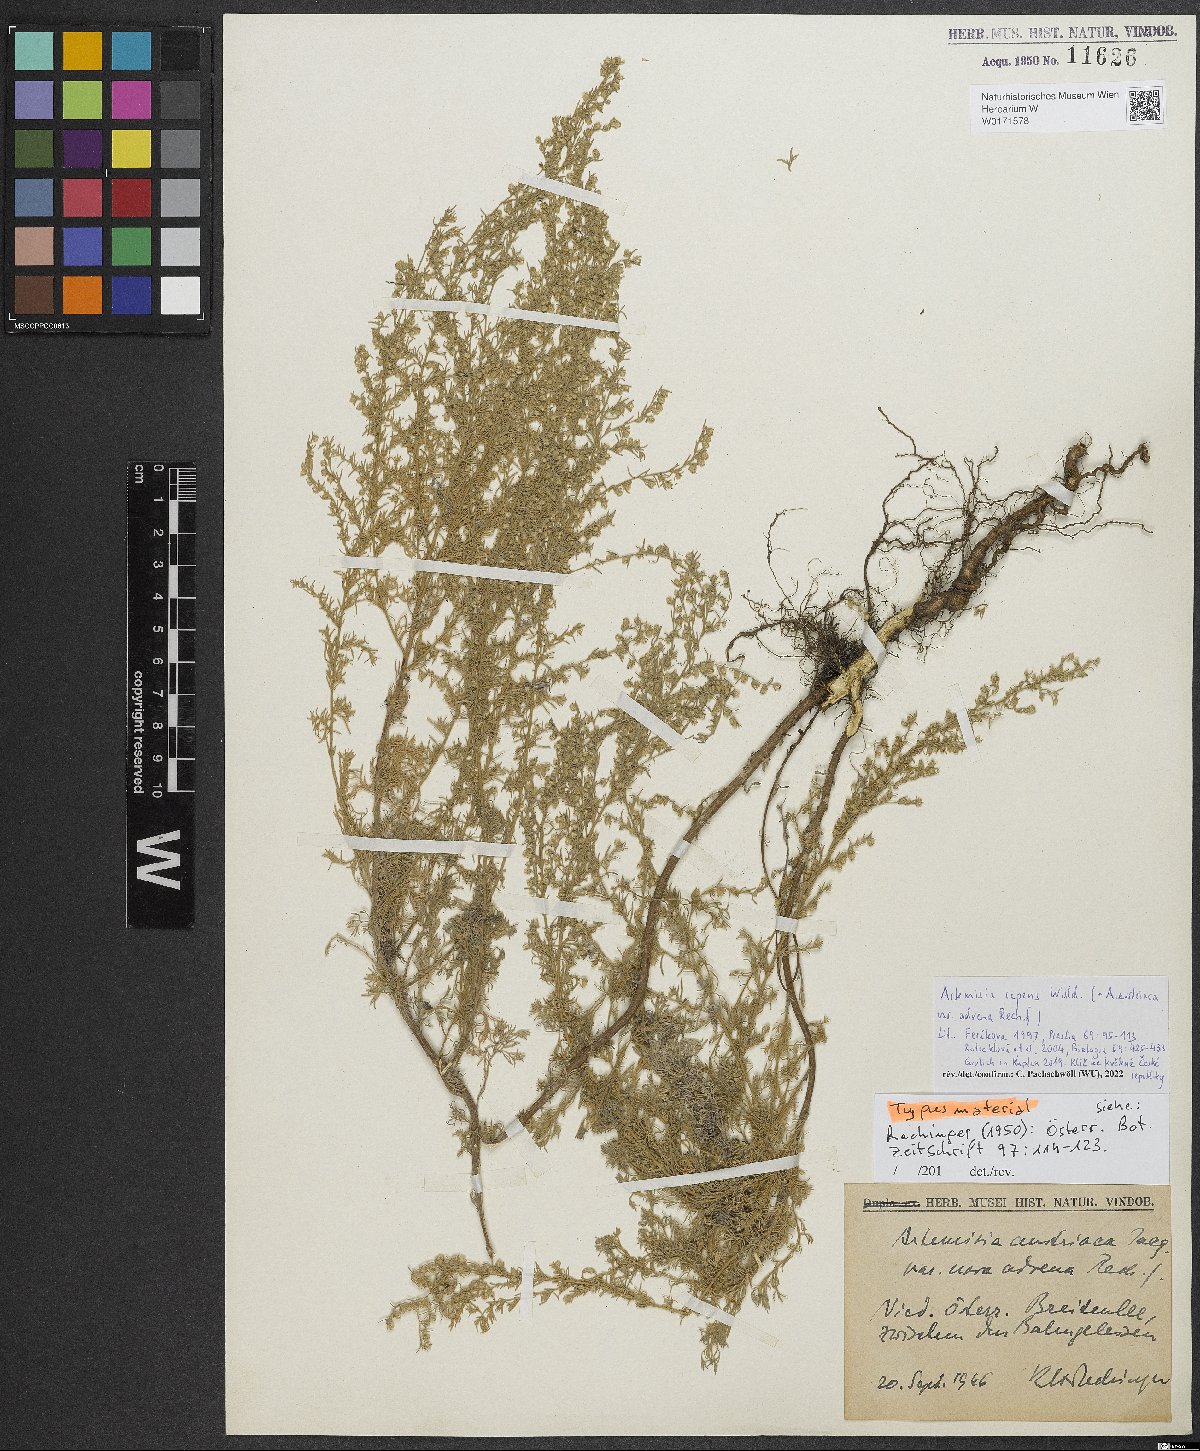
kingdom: Plantae
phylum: Tracheophyta
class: Magnoliopsida
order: Asterales
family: Asteraceae
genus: Artemisia
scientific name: Artemisia repens
